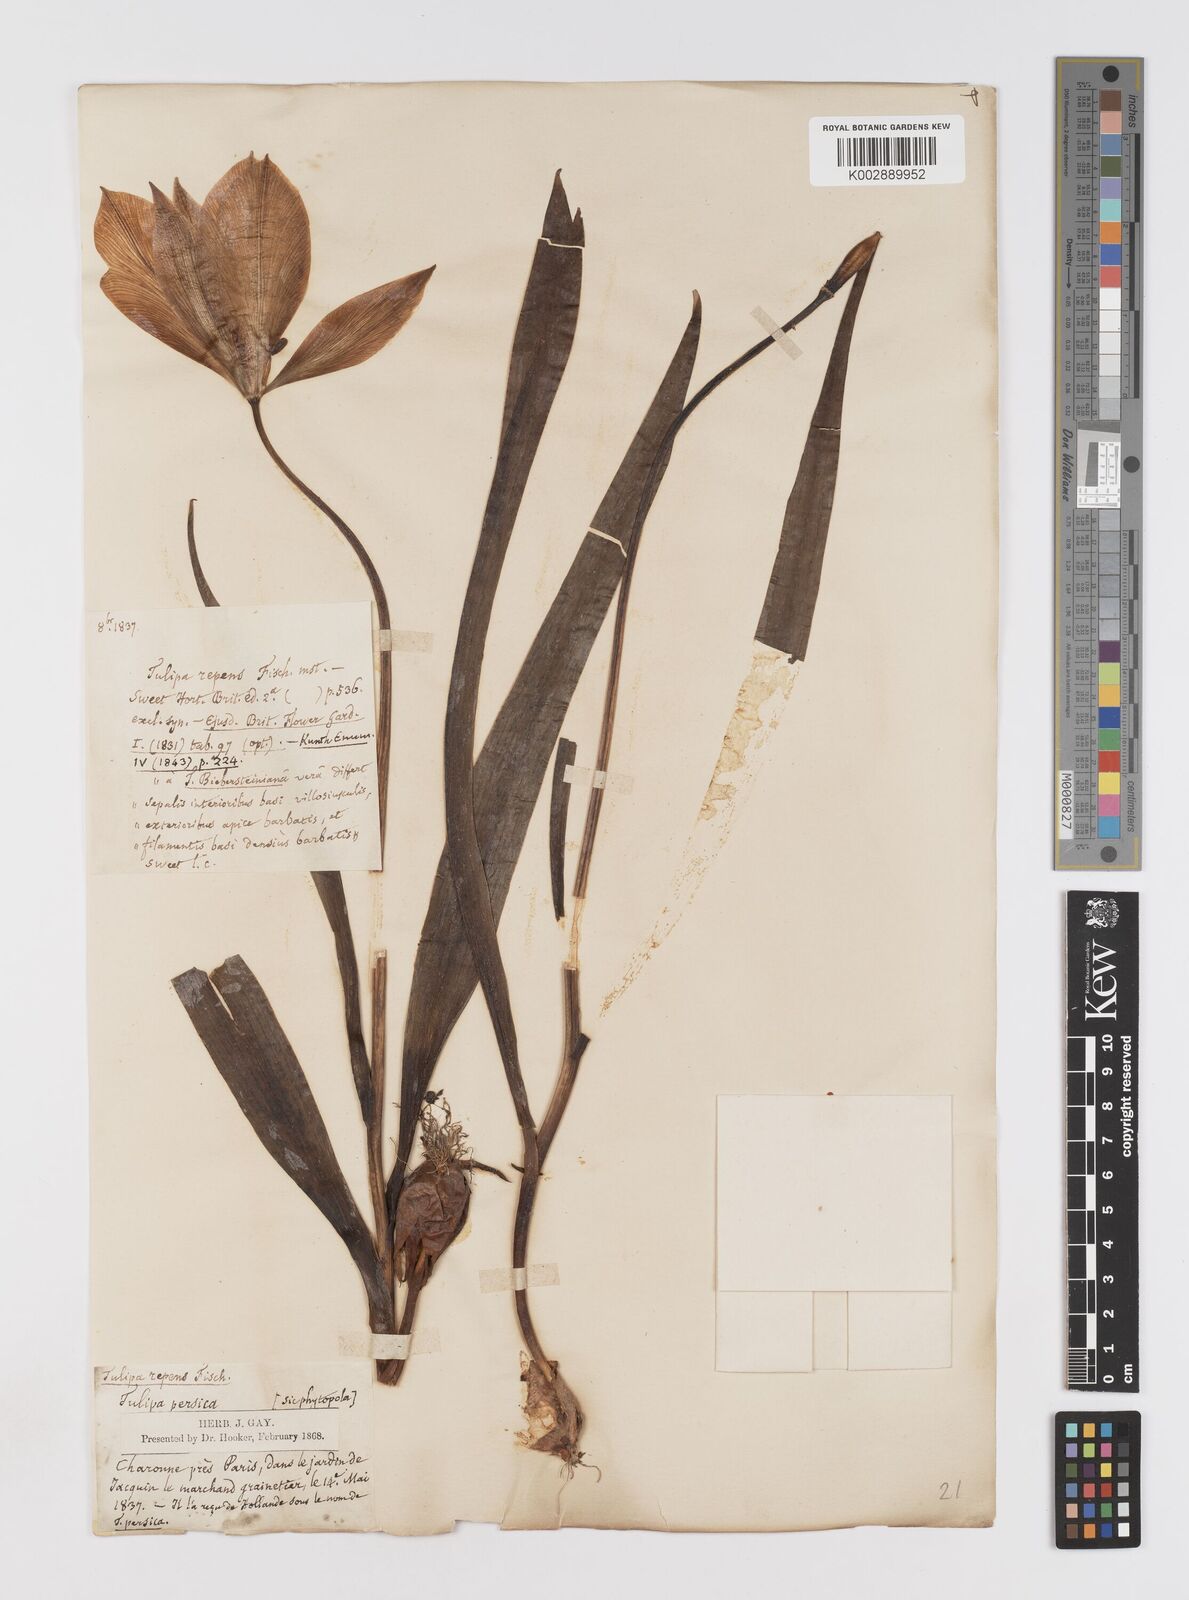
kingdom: Plantae
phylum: Tracheophyta
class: Liliopsida
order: Liliales
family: Liliaceae
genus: Tulipa
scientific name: Tulipa sylvestris
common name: Wild tulip
